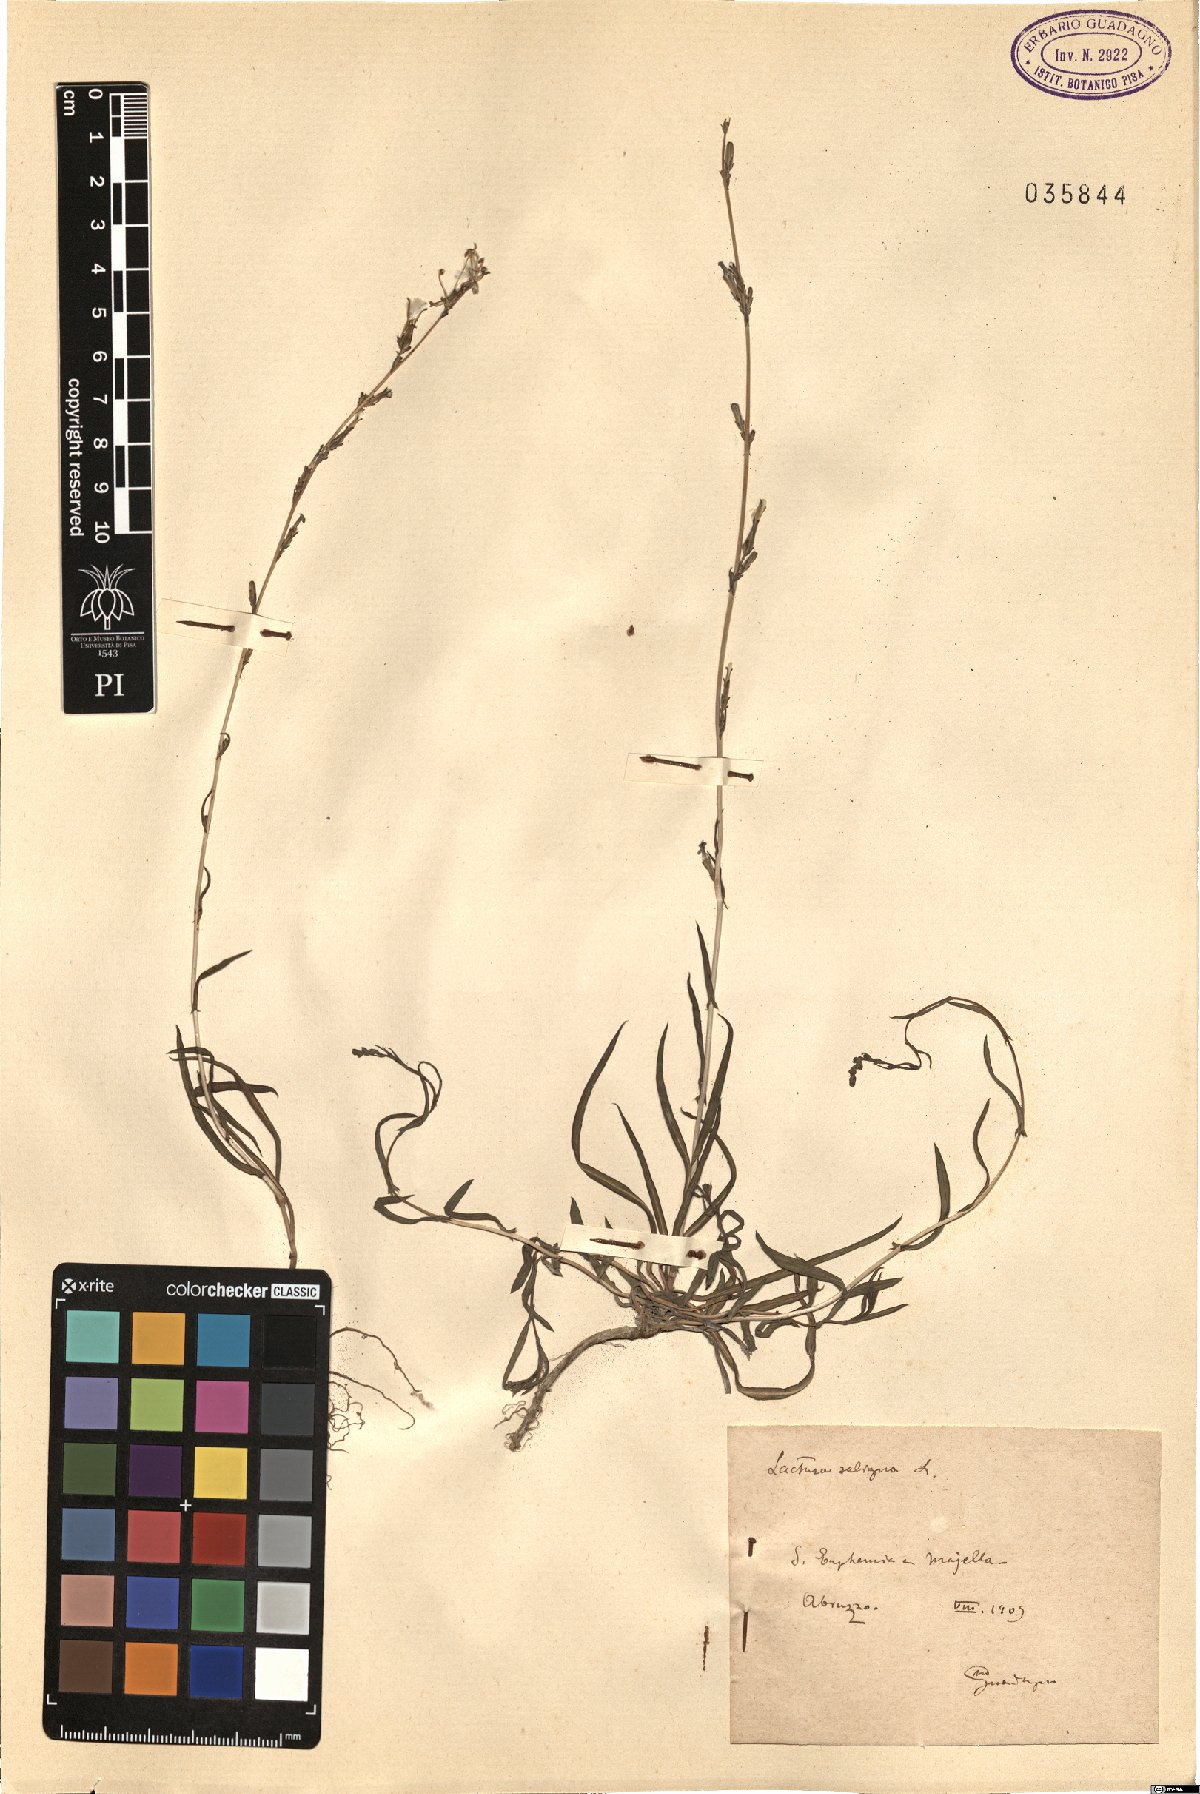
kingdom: Plantae
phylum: Tracheophyta
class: Magnoliopsida
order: Asterales
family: Asteraceae
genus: Lactuca
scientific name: Lactuca saligna
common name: Wild lettuce
